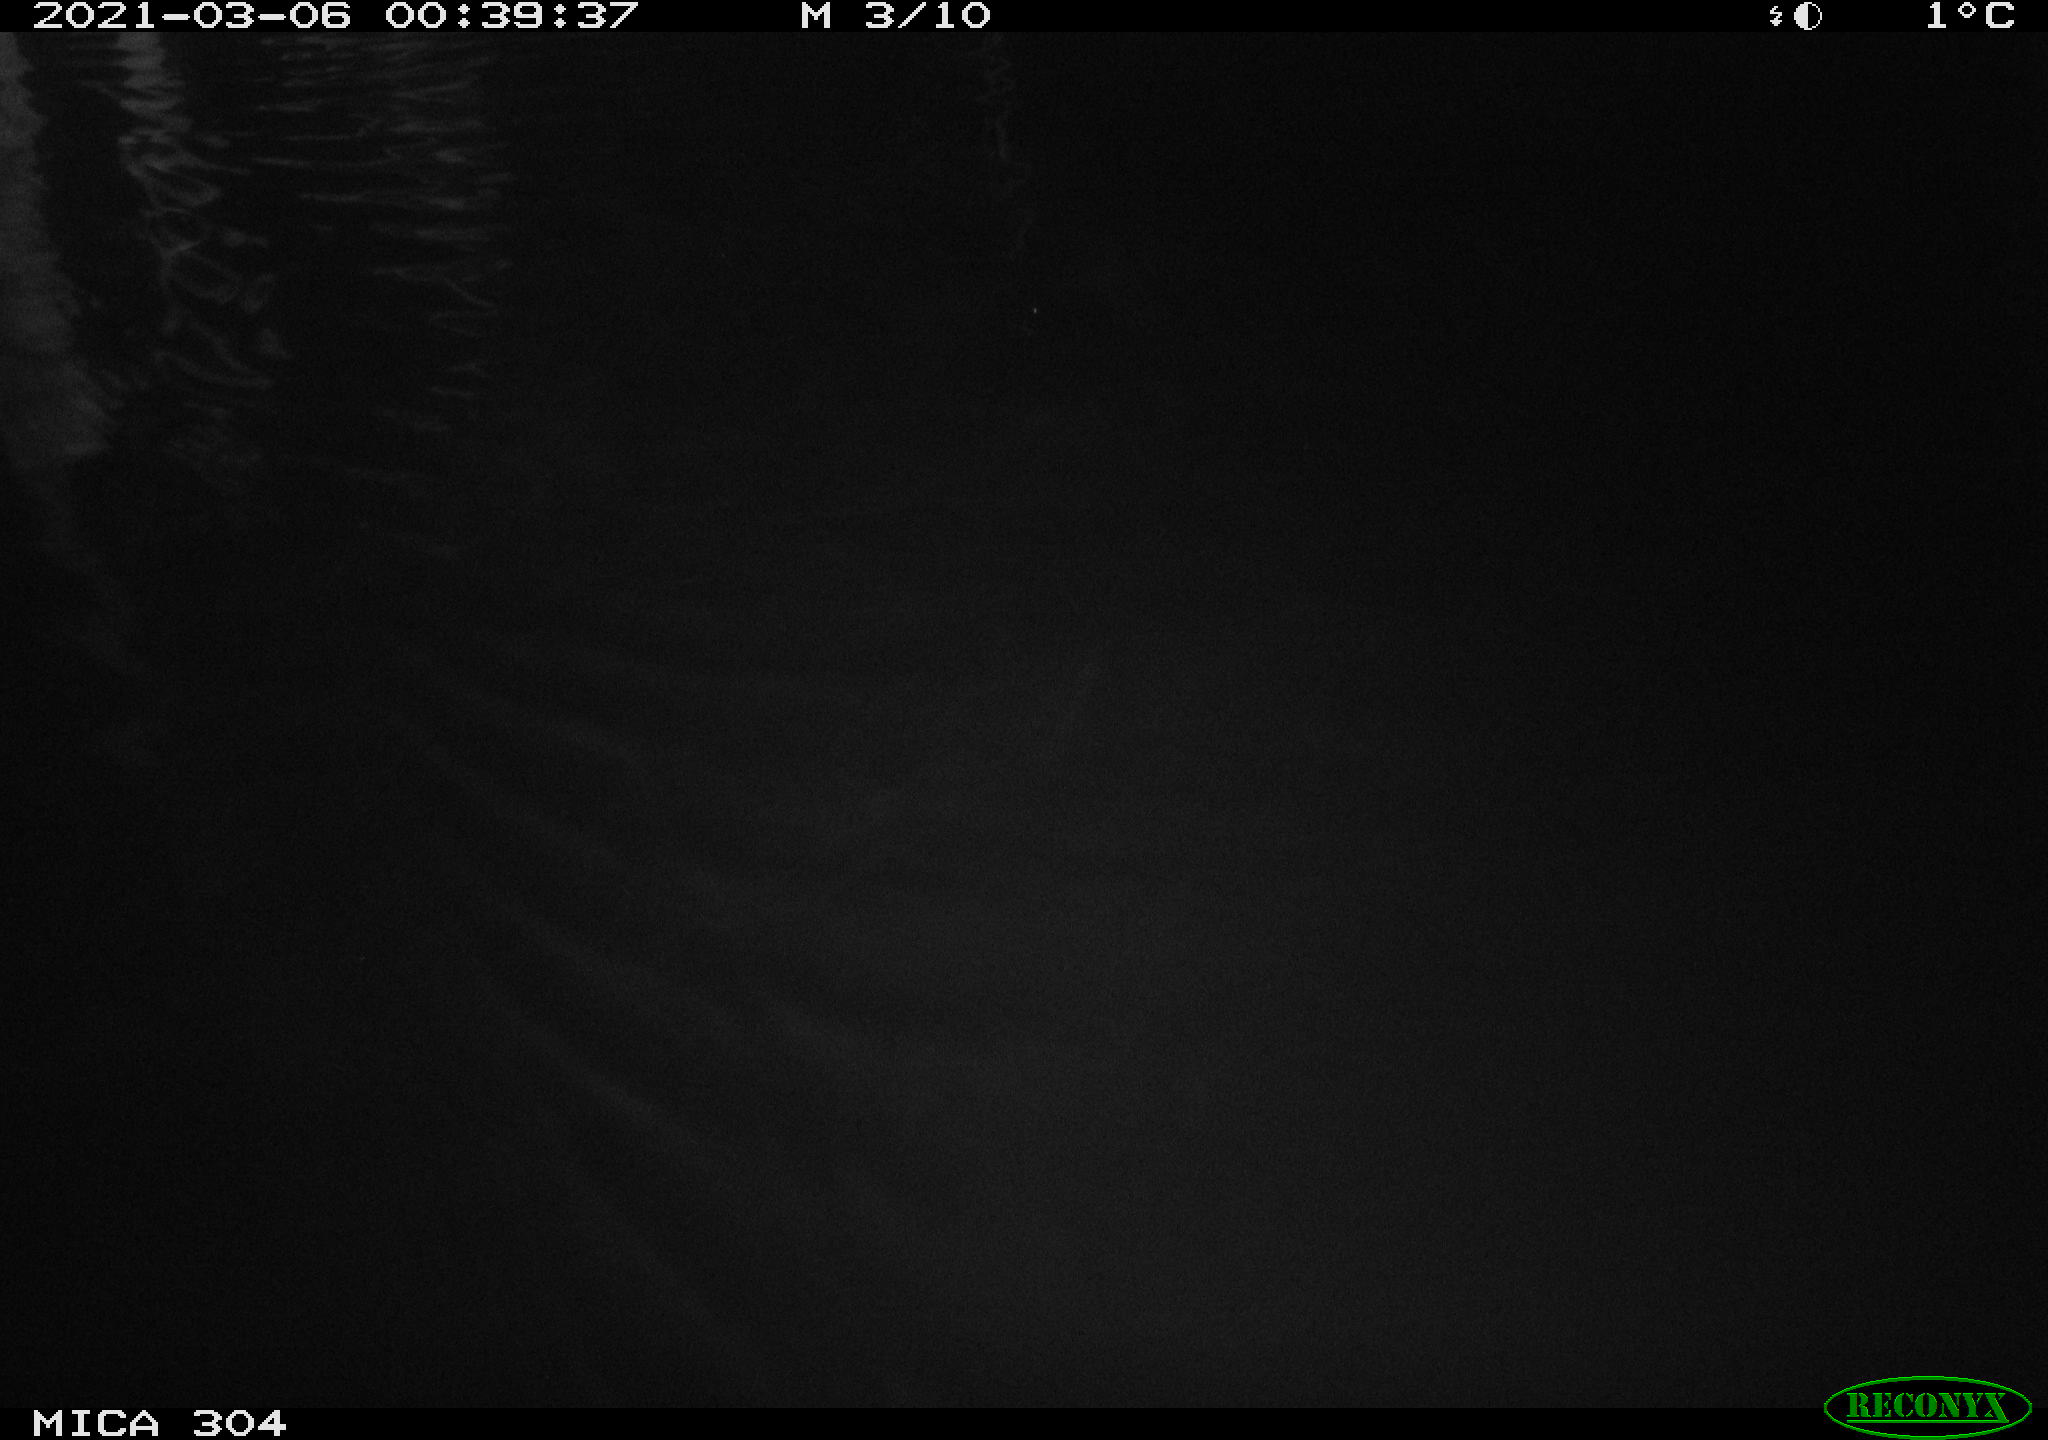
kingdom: Animalia
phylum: Chordata
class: Aves
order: Anseriformes
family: Anatidae
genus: Anas
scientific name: Anas platyrhynchos
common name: Mallard
